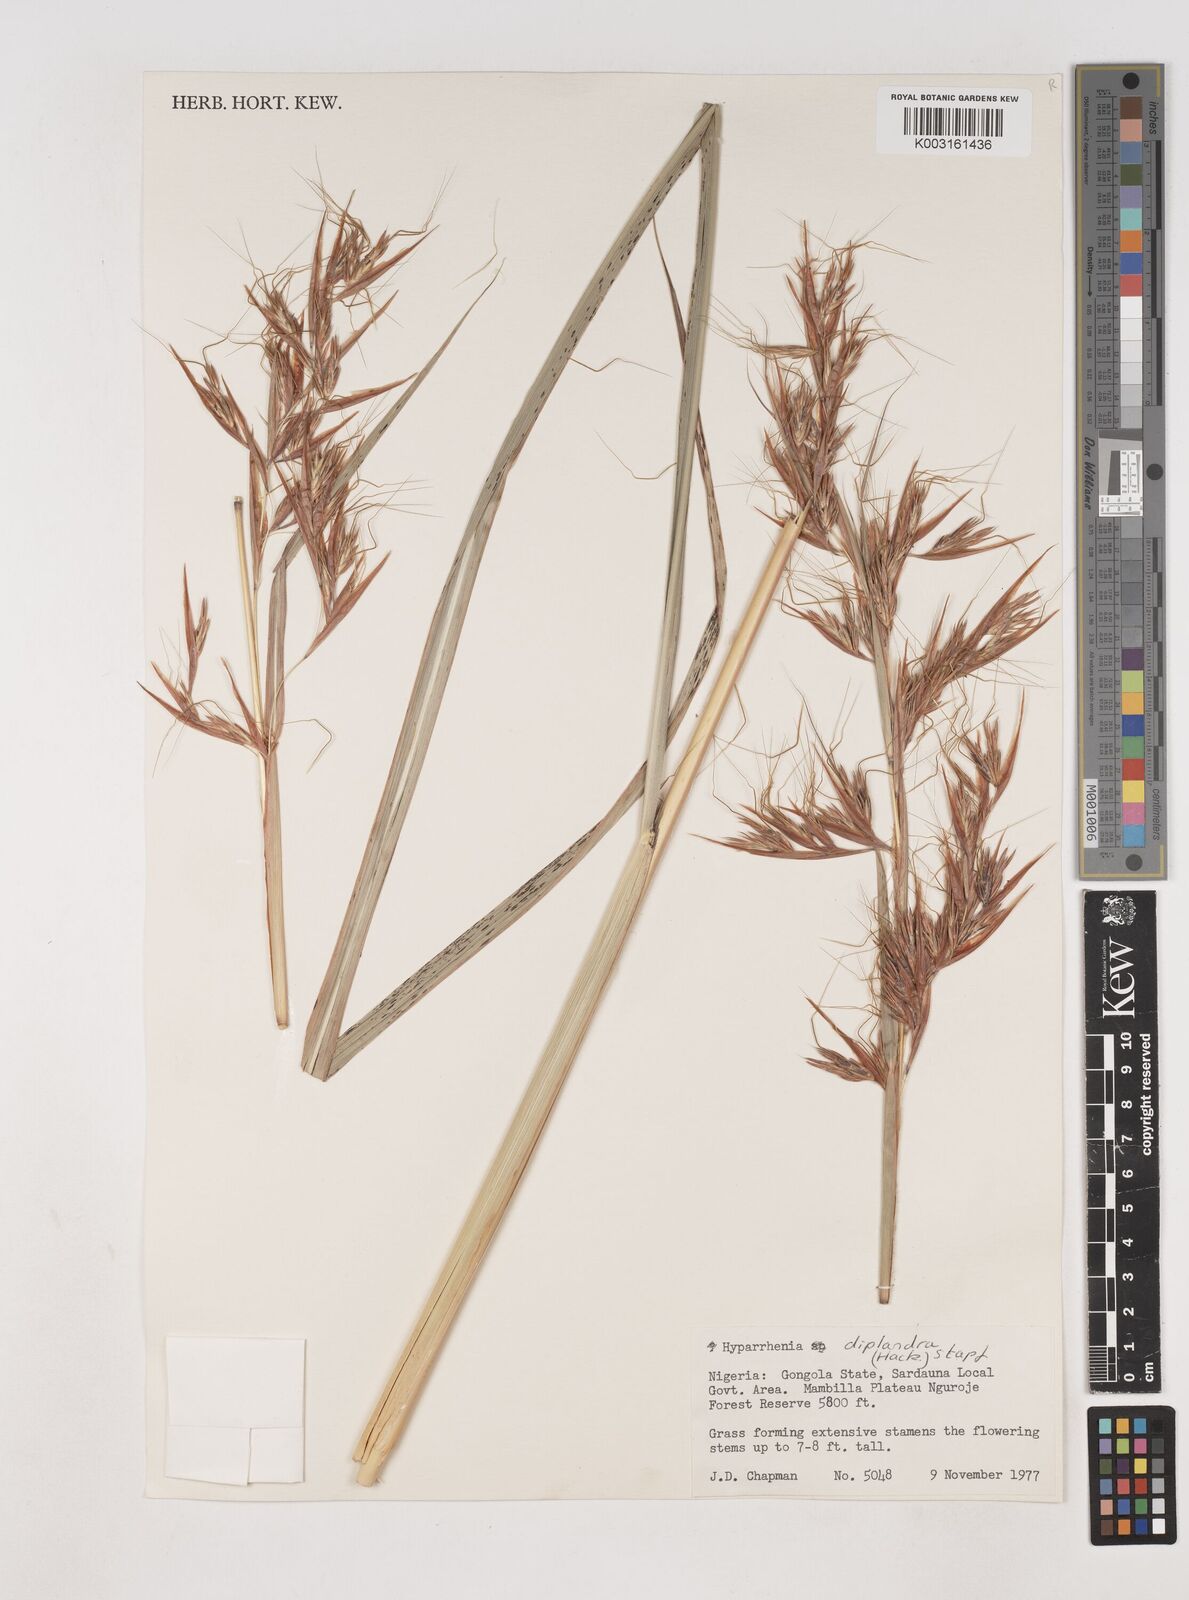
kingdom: Plantae
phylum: Tracheophyta
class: Liliopsida
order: Poales
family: Poaceae
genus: Hyparrhenia
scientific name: Hyparrhenia diplandra
